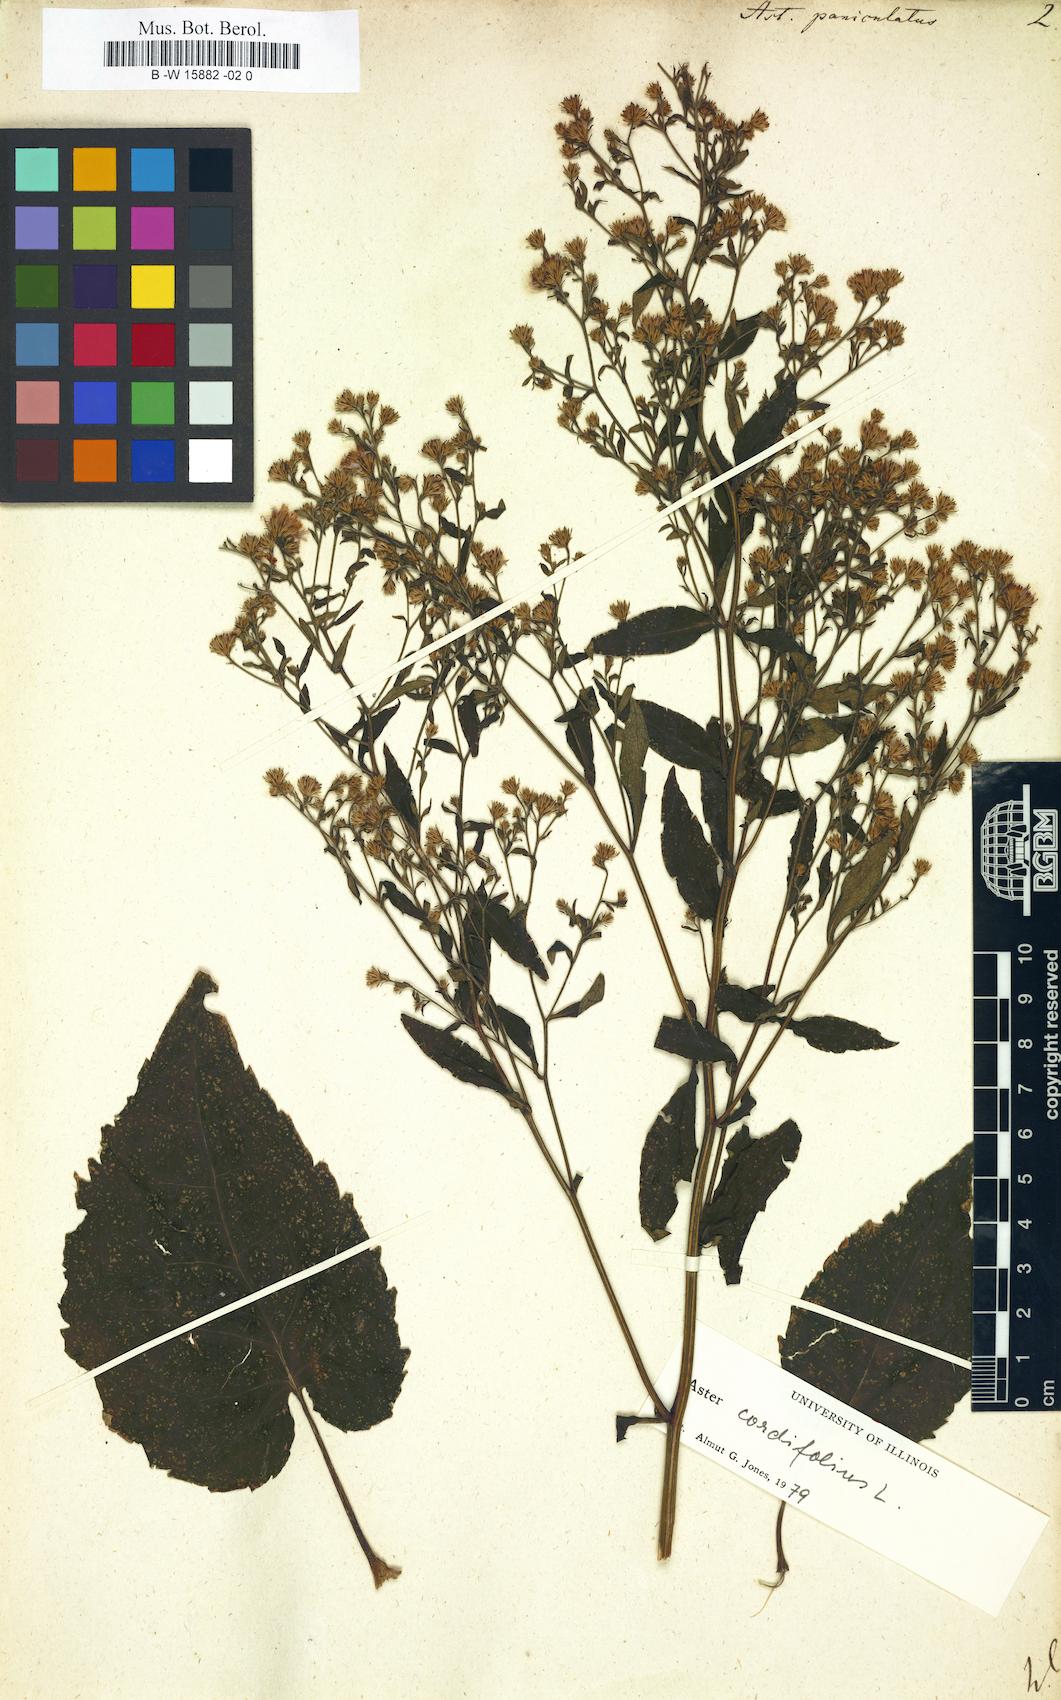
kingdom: Plantae
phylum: Tracheophyta
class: Magnoliopsida
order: Asterales
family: Asteraceae
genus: Symphyotrichum
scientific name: Symphyotrichum lanceolatum
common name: Panicled aster
